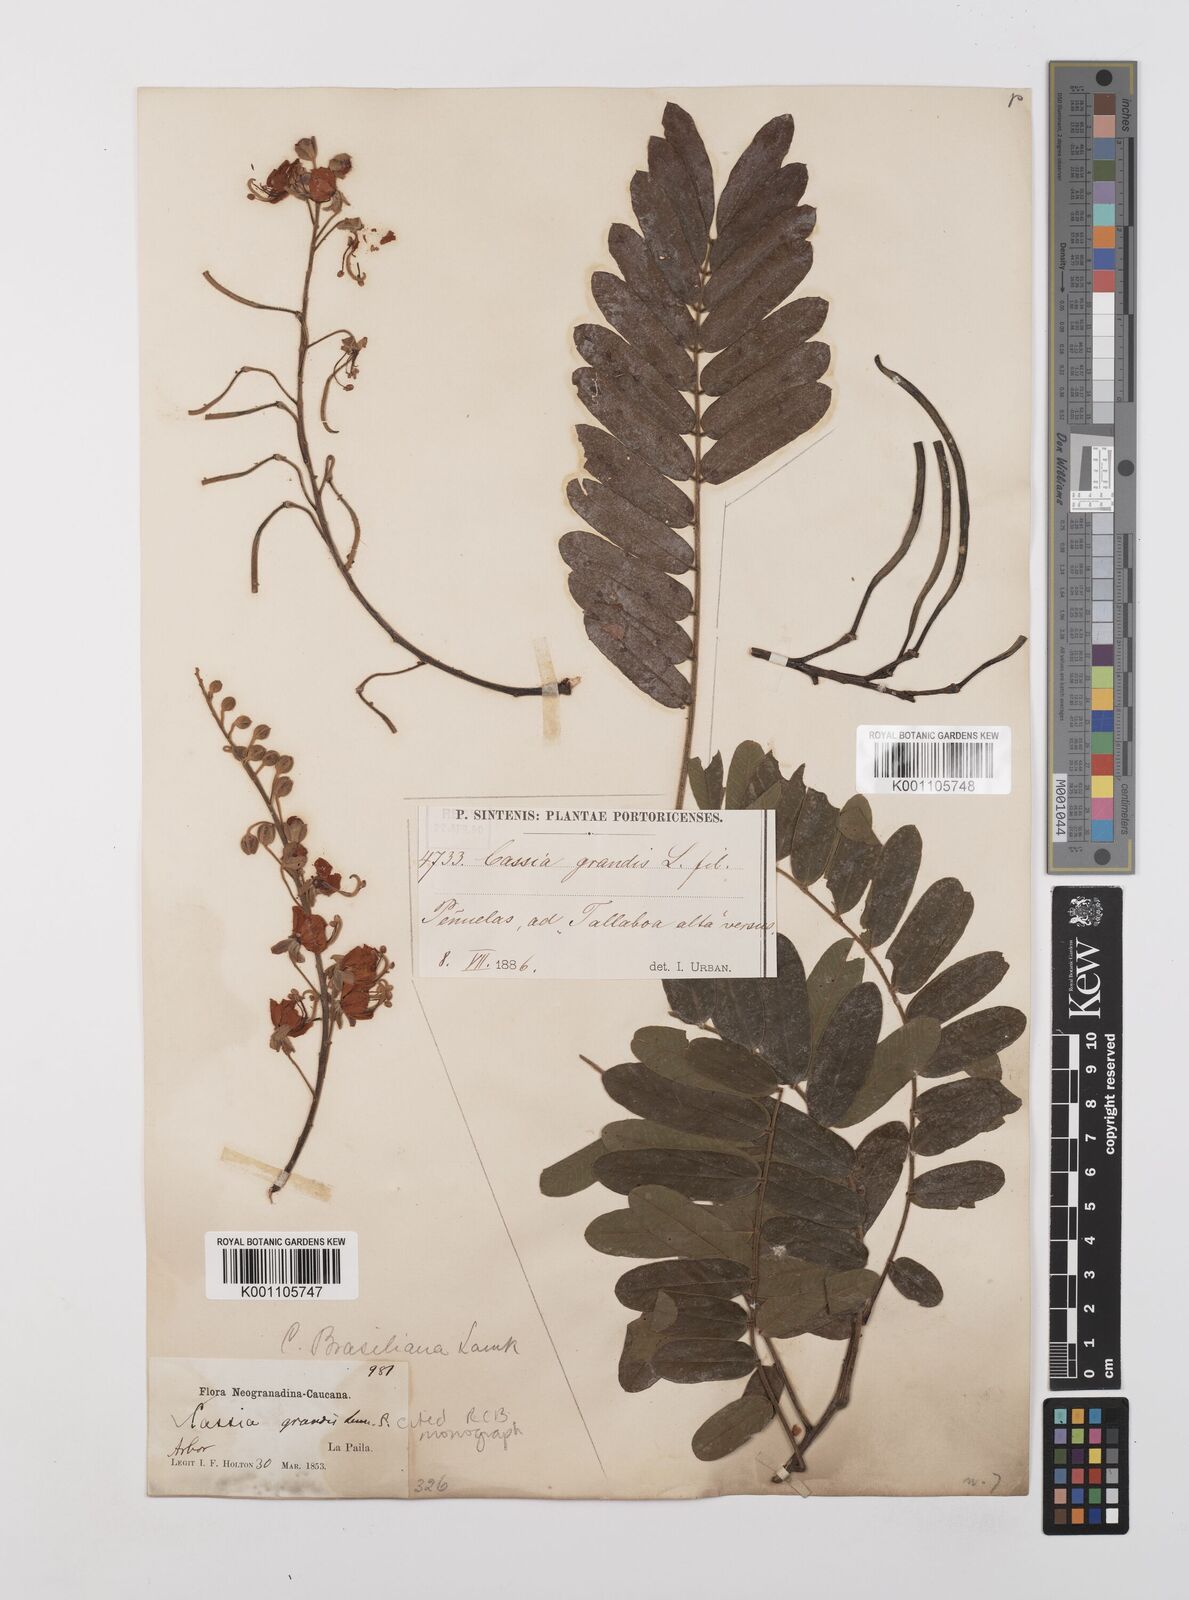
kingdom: Plantae
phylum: Tracheophyta
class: Magnoliopsida
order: Fabales
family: Fabaceae
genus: Cassia
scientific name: Cassia grandis
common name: Appleblossom cassia
